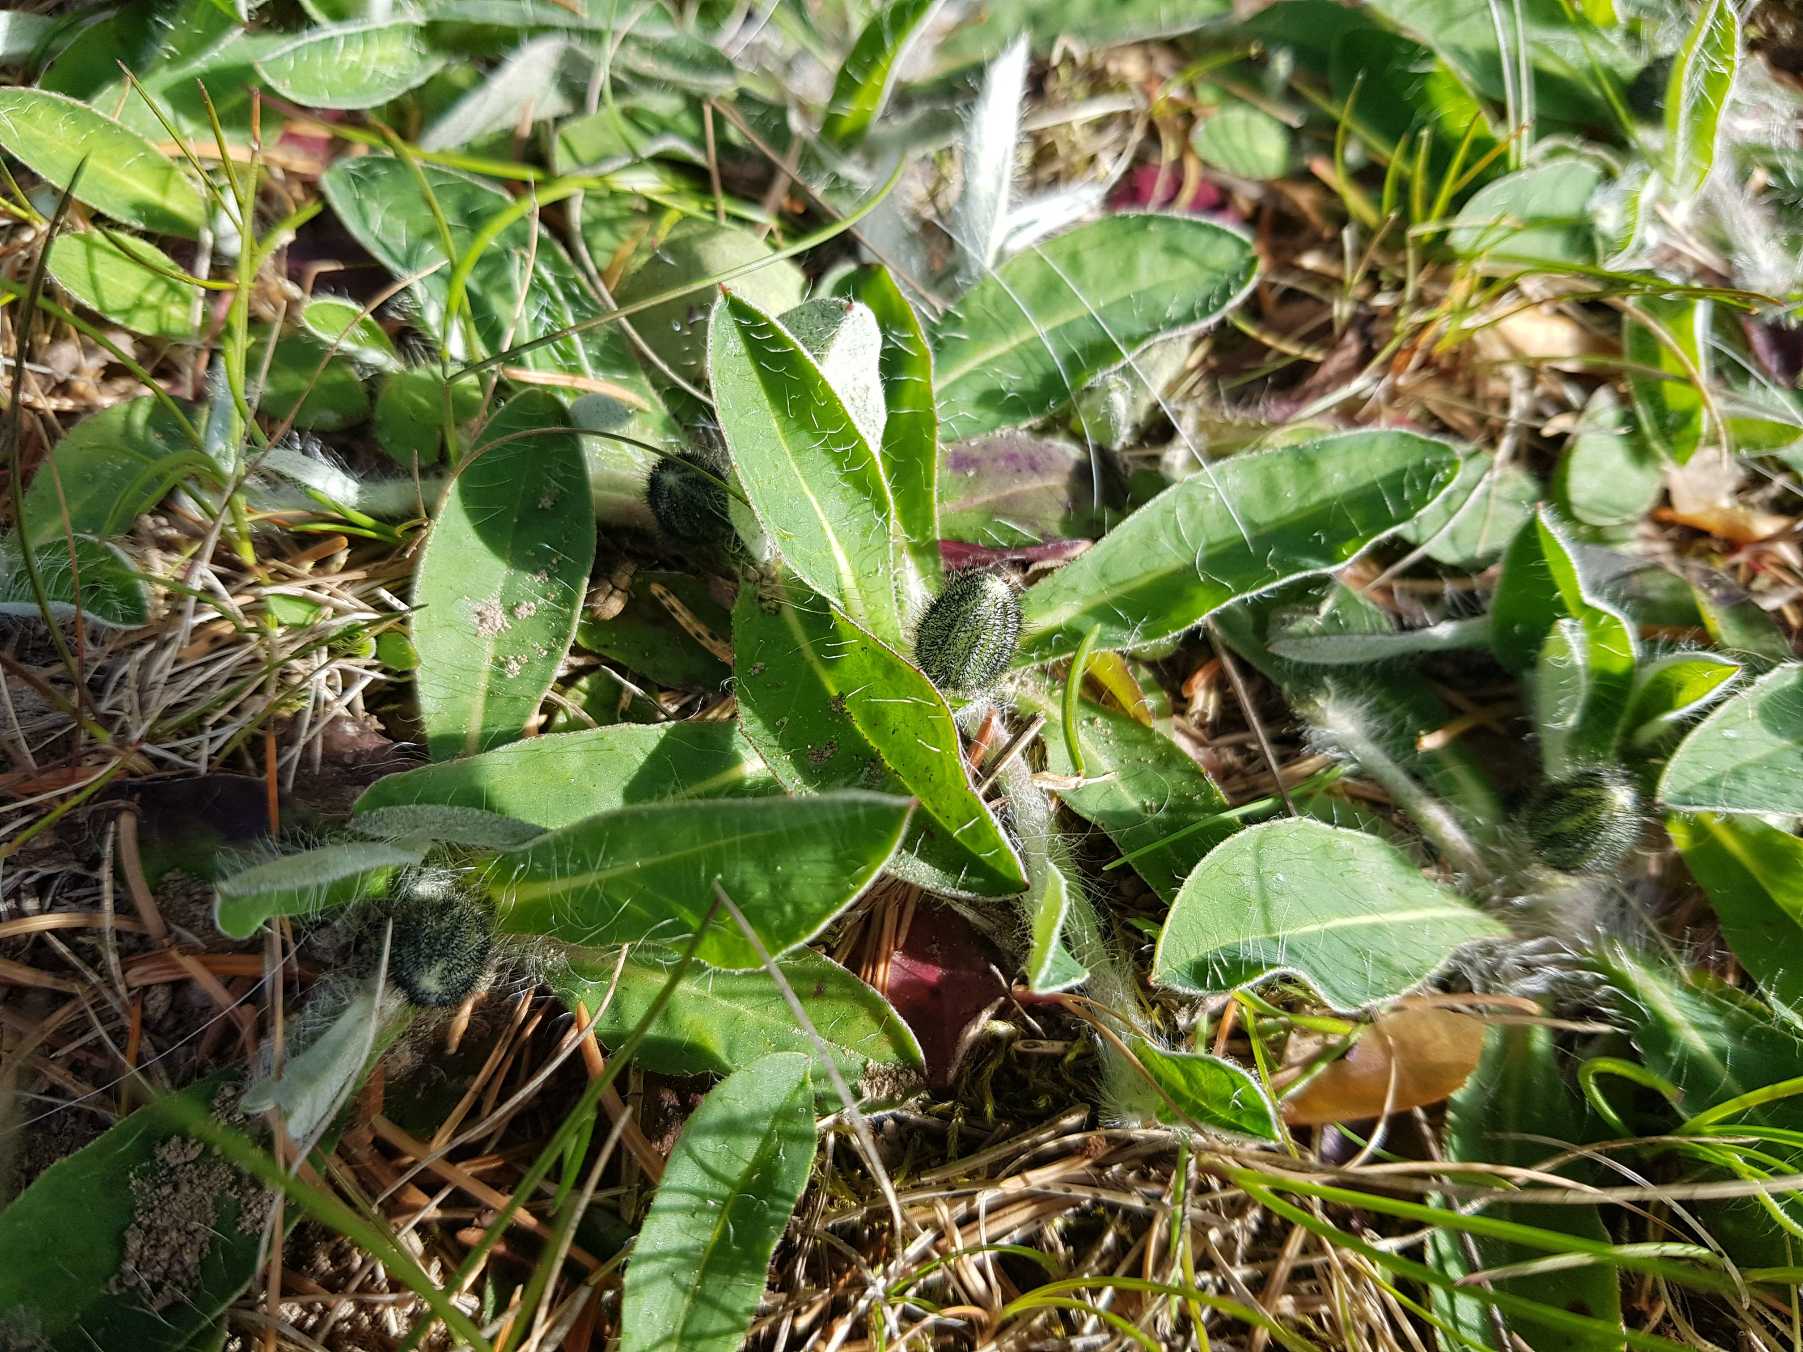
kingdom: Plantae
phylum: Tracheophyta
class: Magnoliopsida
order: Asterales
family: Asteraceae
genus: Pilosella
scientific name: Pilosella officinarum
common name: Håret høgeurt
